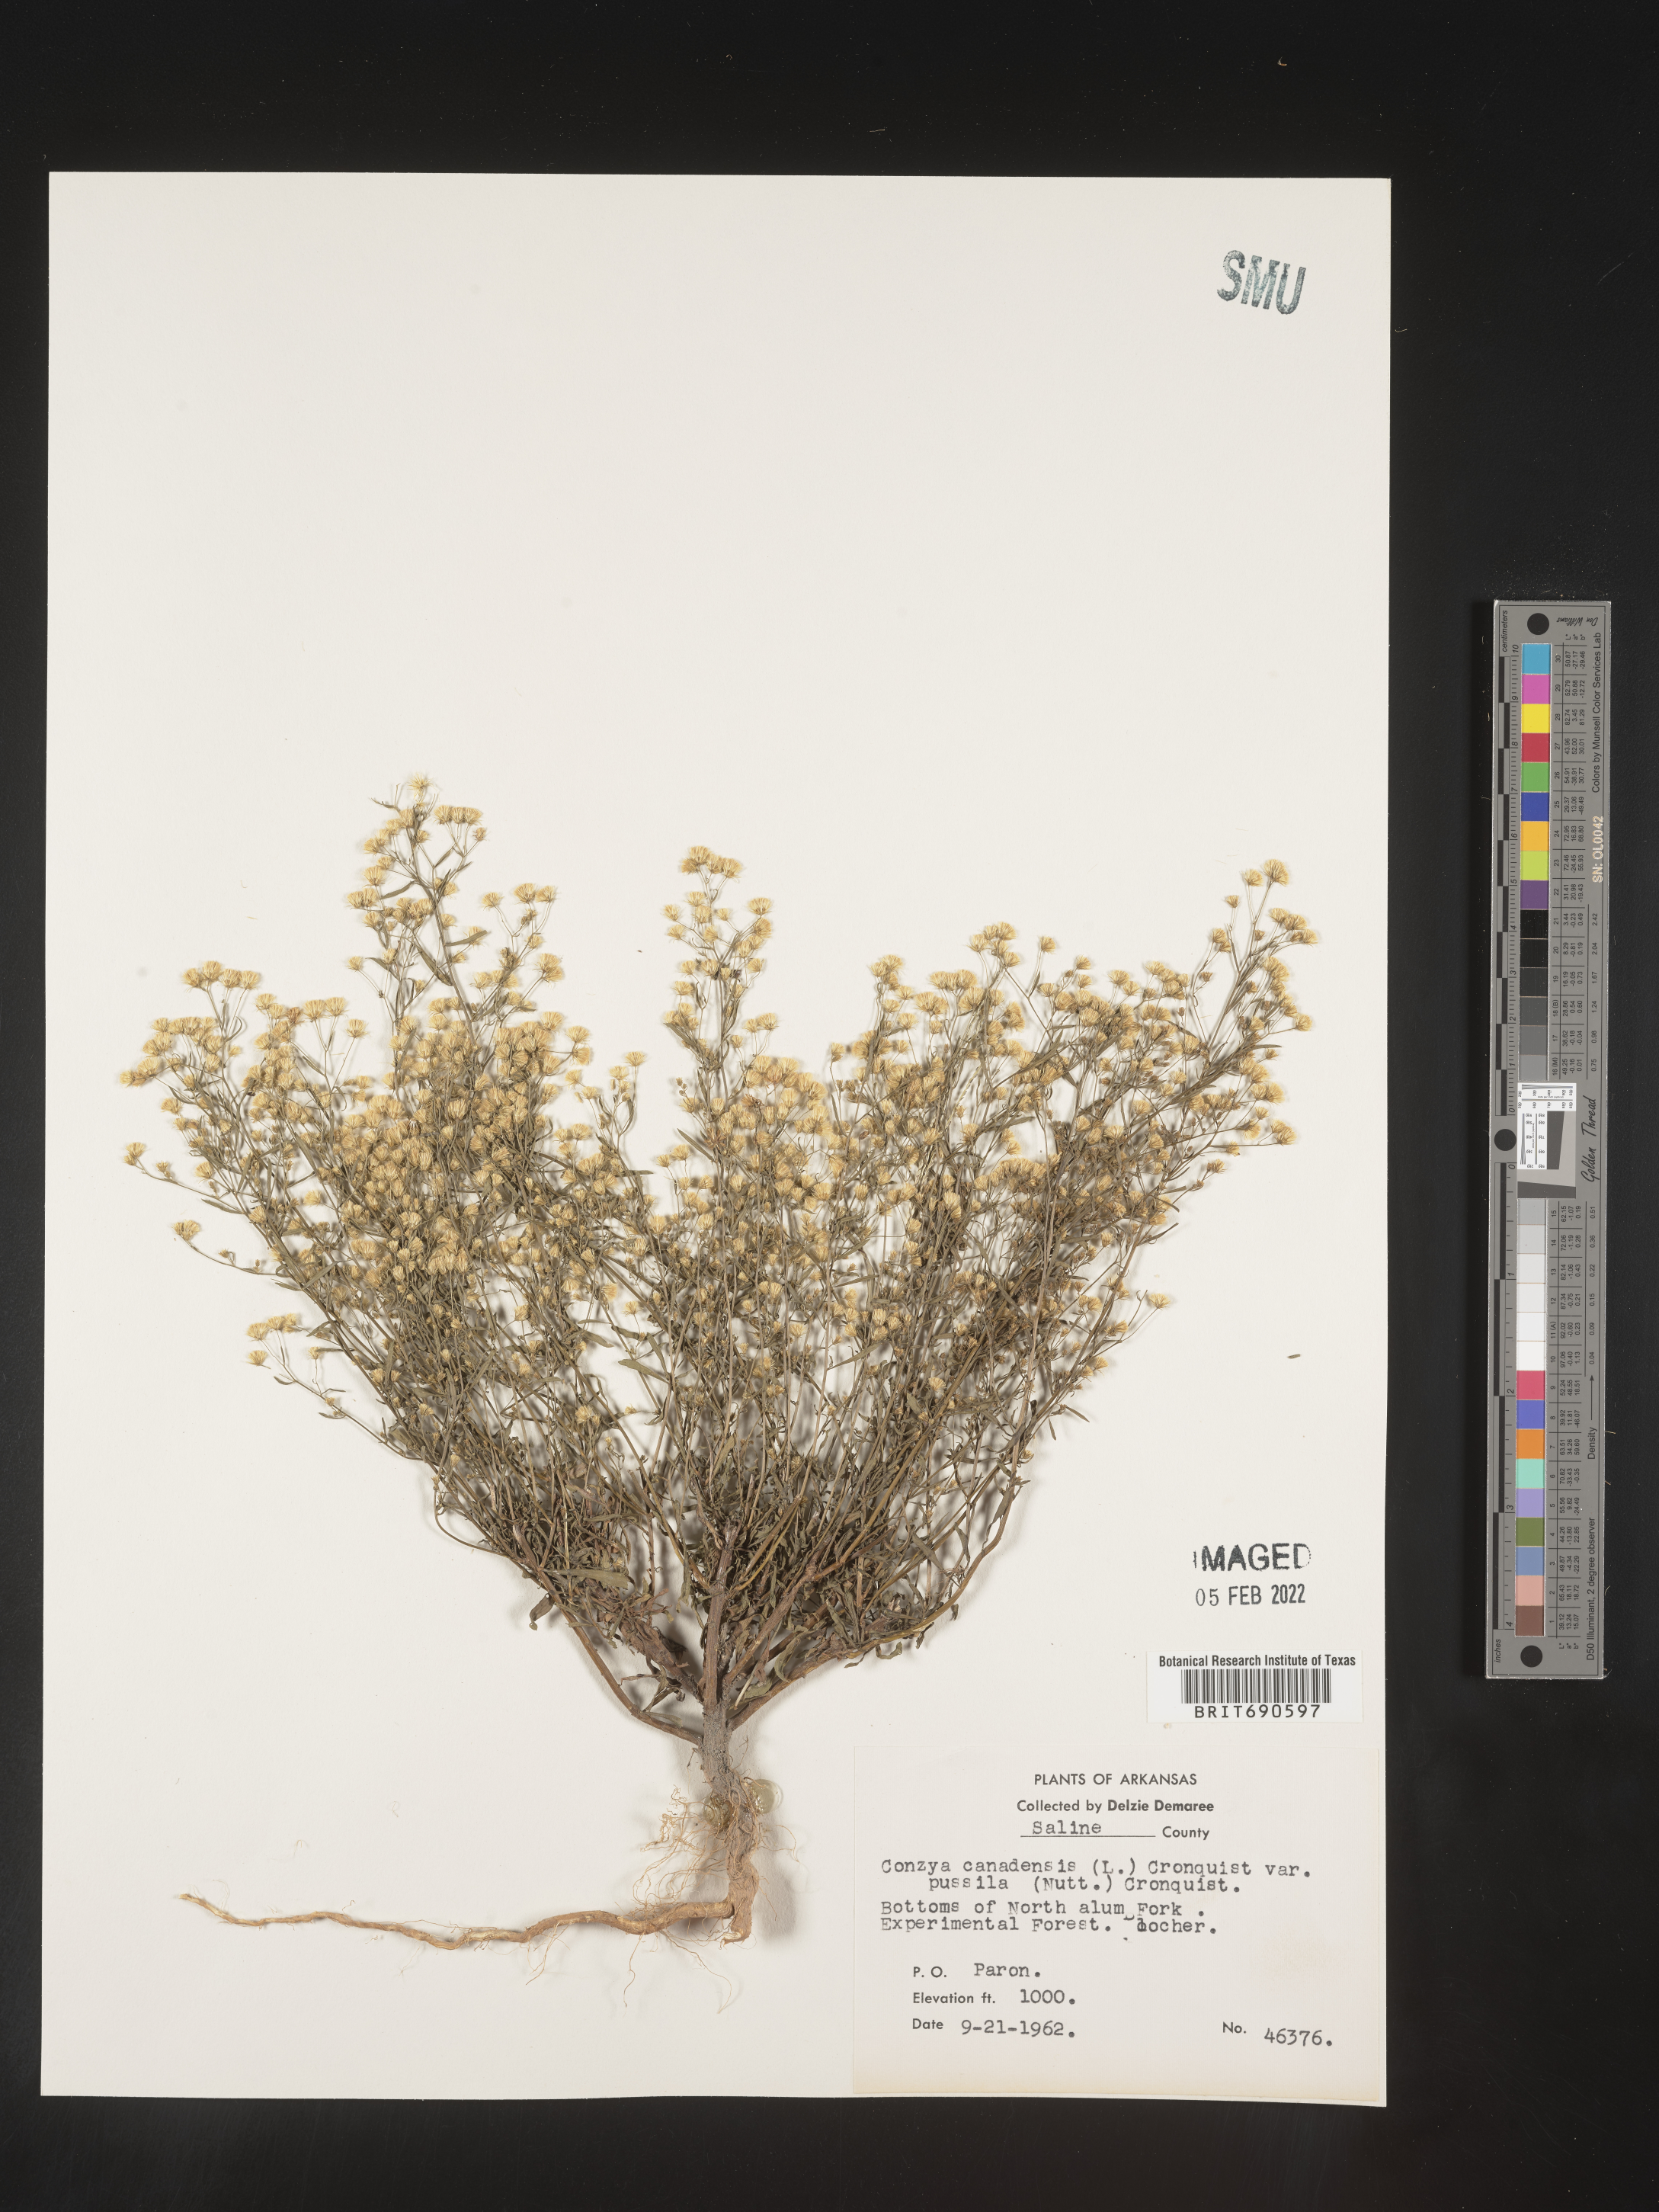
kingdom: Plantae
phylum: Tracheophyta
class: Magnoliopsida
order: Asterales
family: Asteraceae
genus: Erigeron
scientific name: Erigeron canadensis
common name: Canadian fleabane
